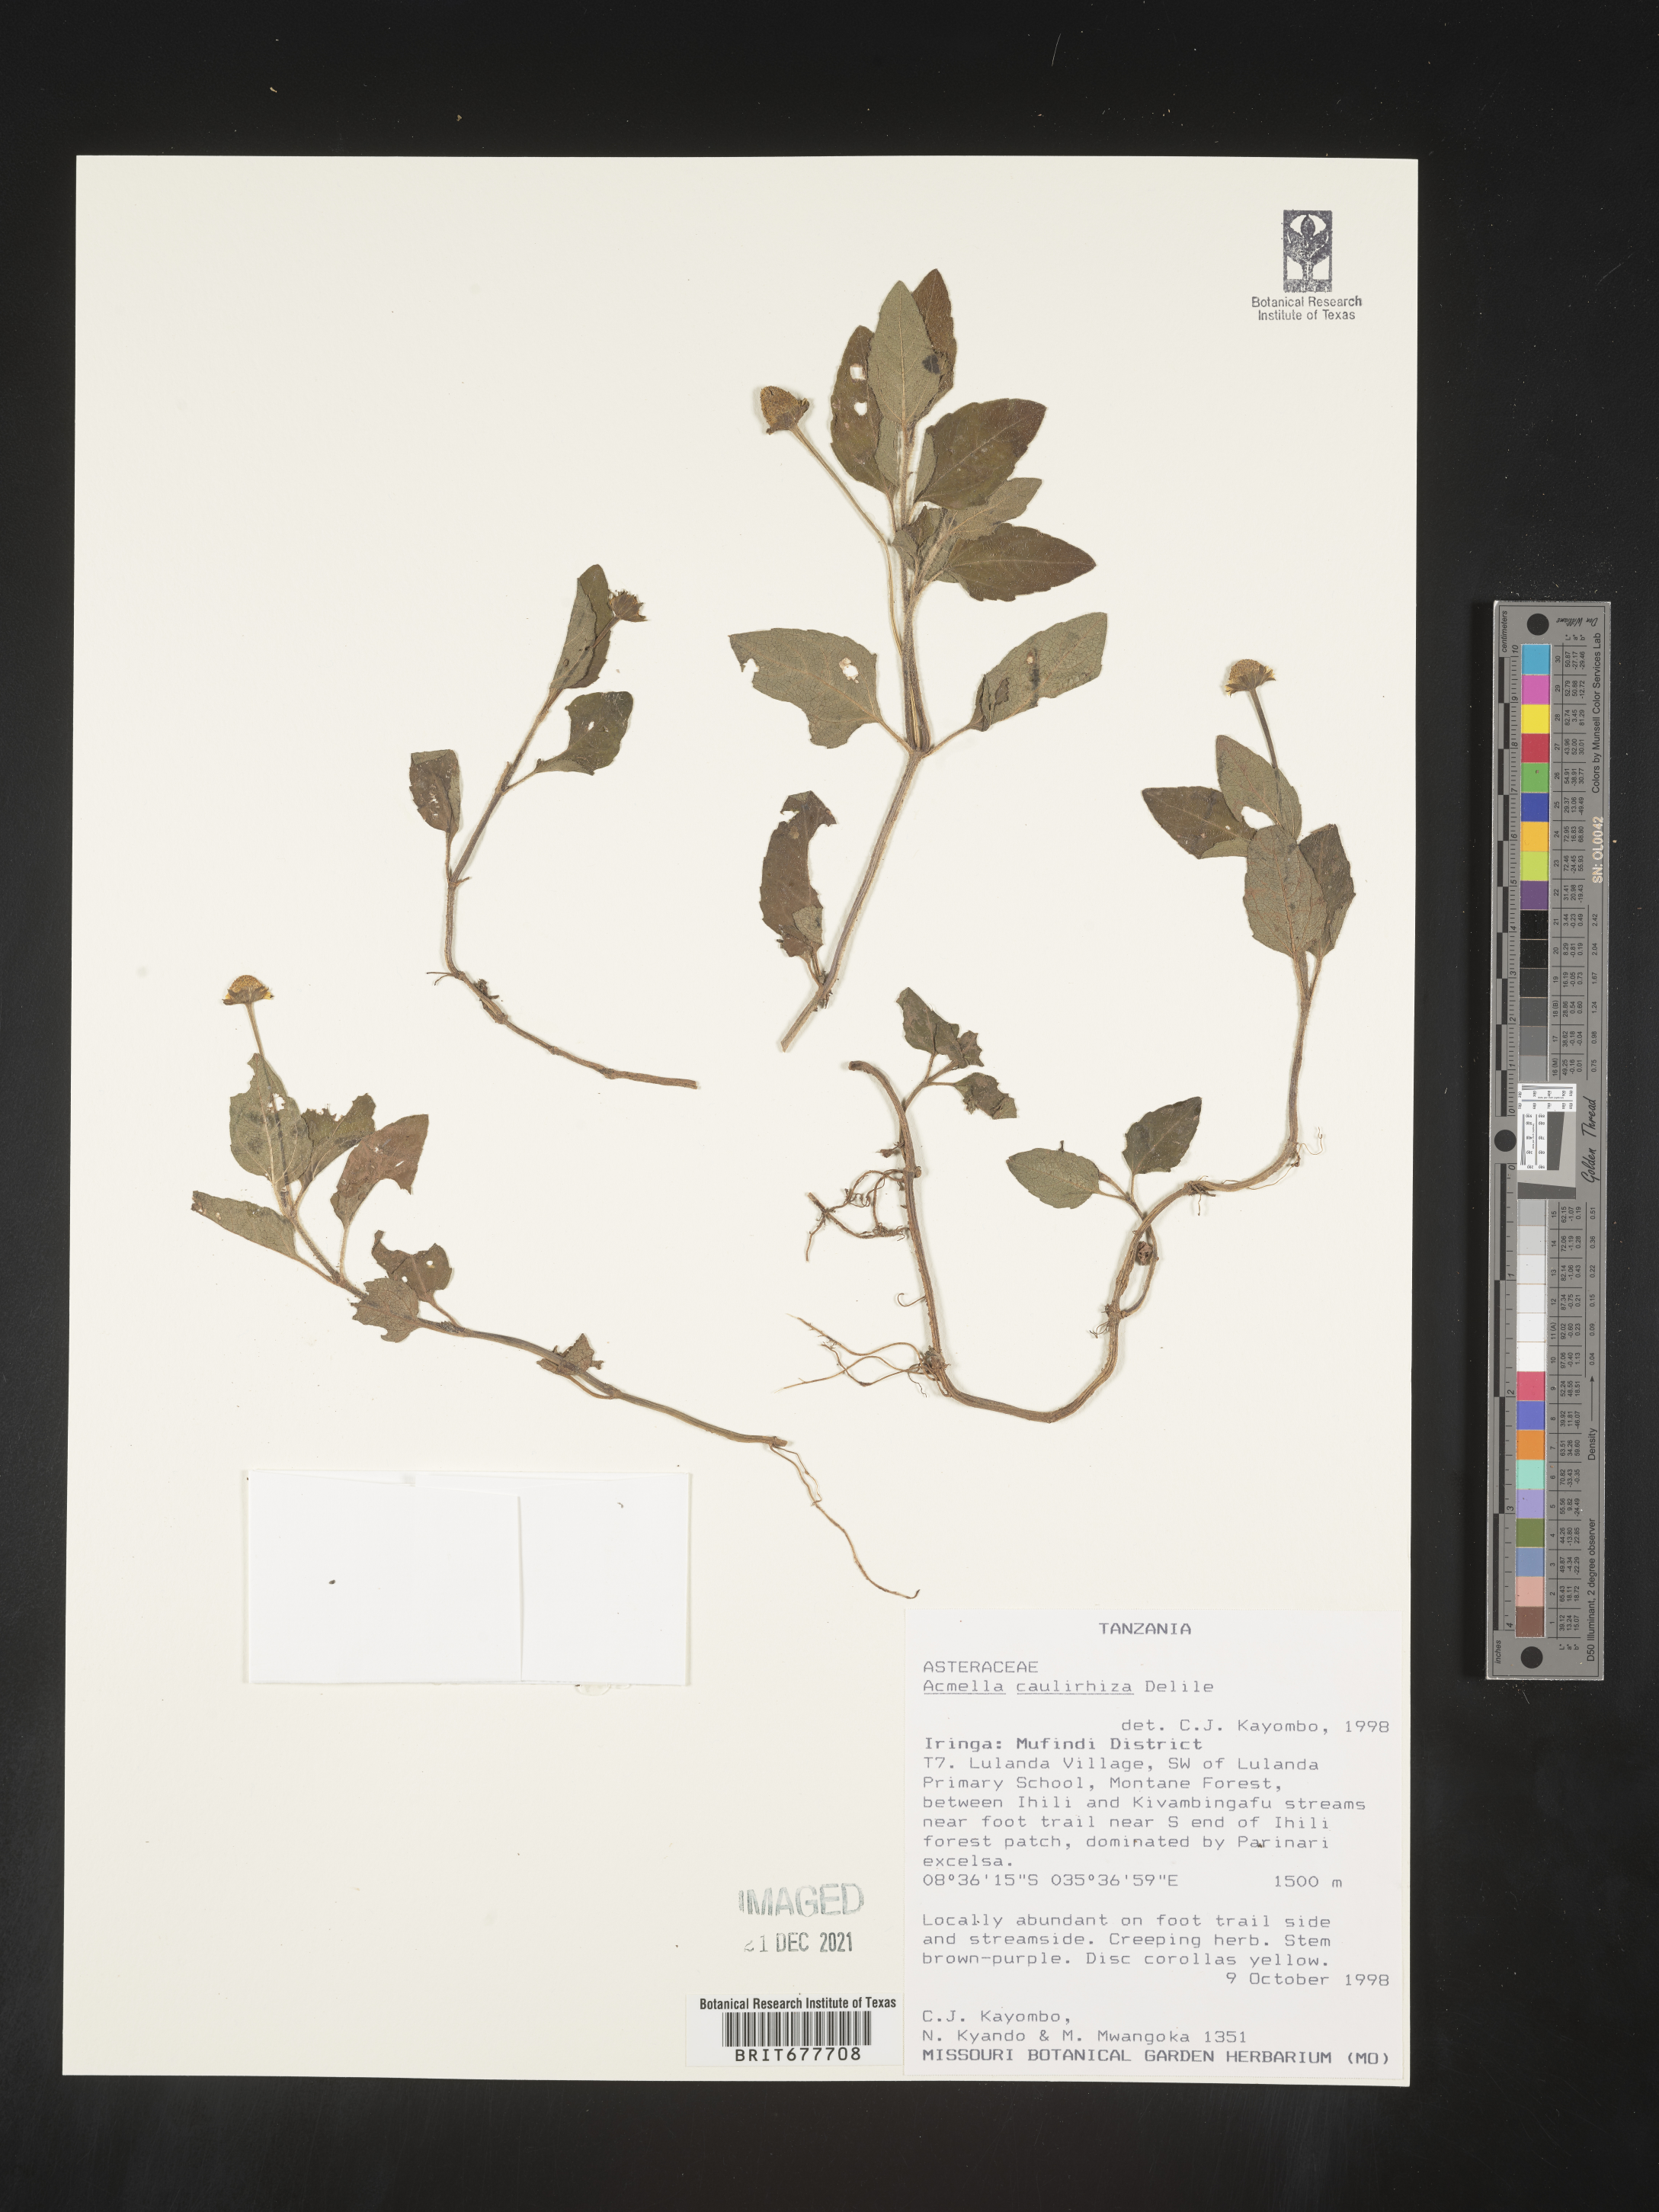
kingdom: Plantae
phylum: Tracheophyta
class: Magnoliopsida
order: Asterales
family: Asteraceae
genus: Acmella
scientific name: Acmella
